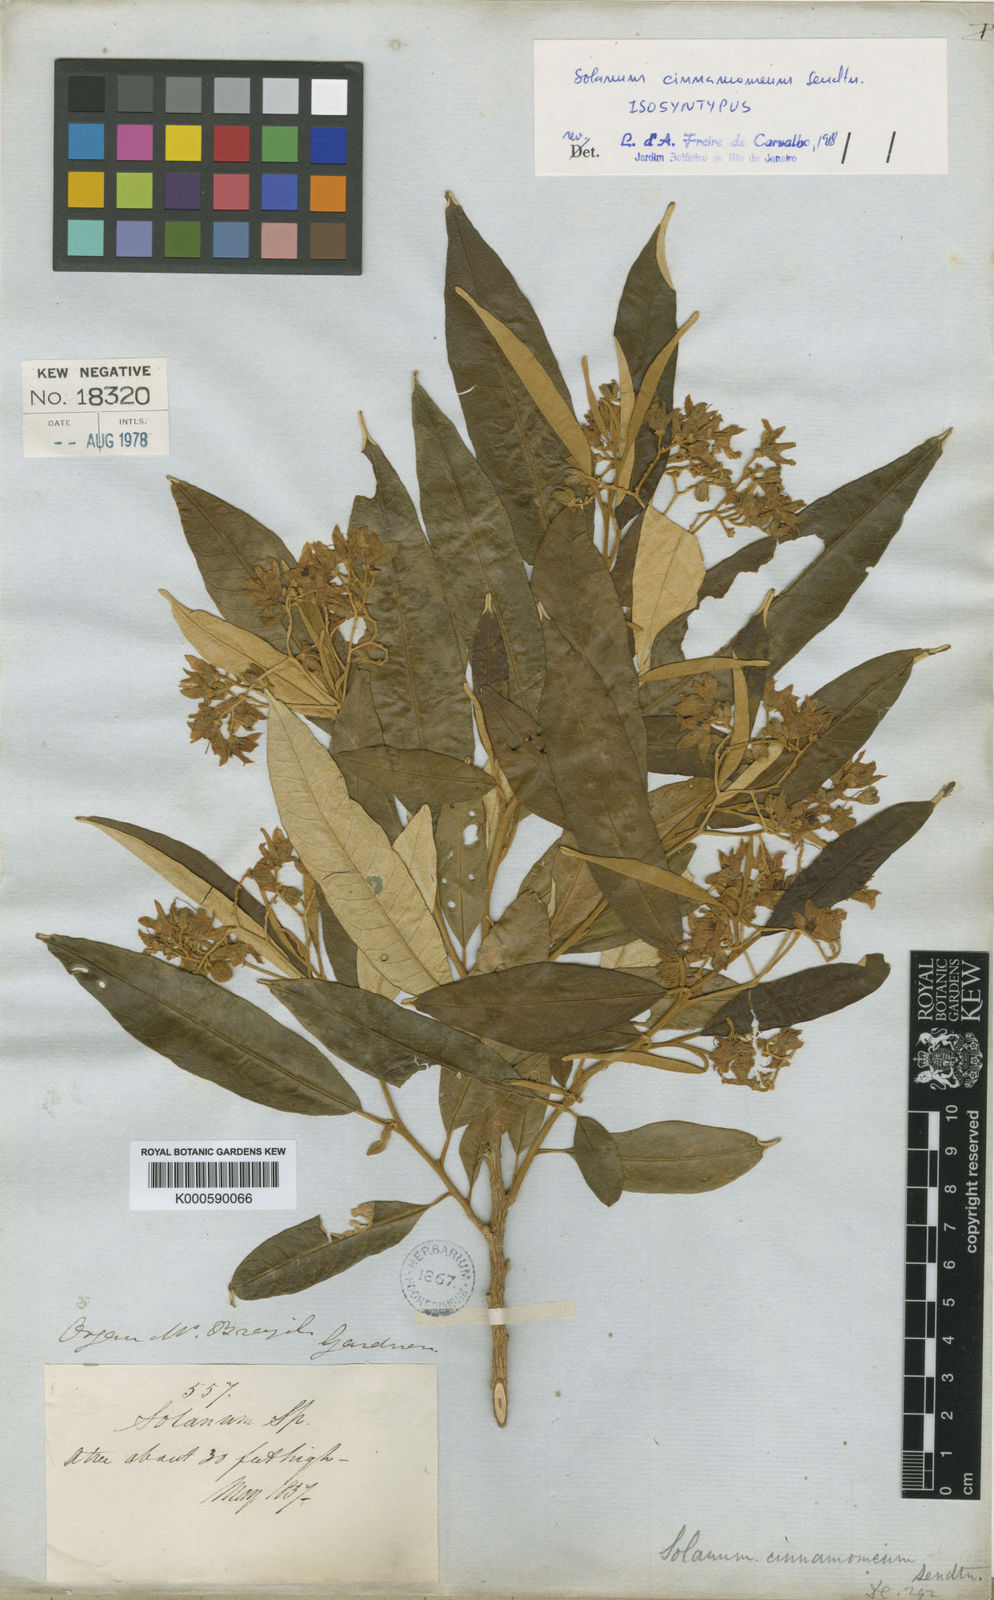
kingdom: Plantae
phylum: Tracheophyta
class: Magnoliopsida
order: Solanales
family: Solanaceae
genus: Solanum
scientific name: Solanum cinnamomeum
